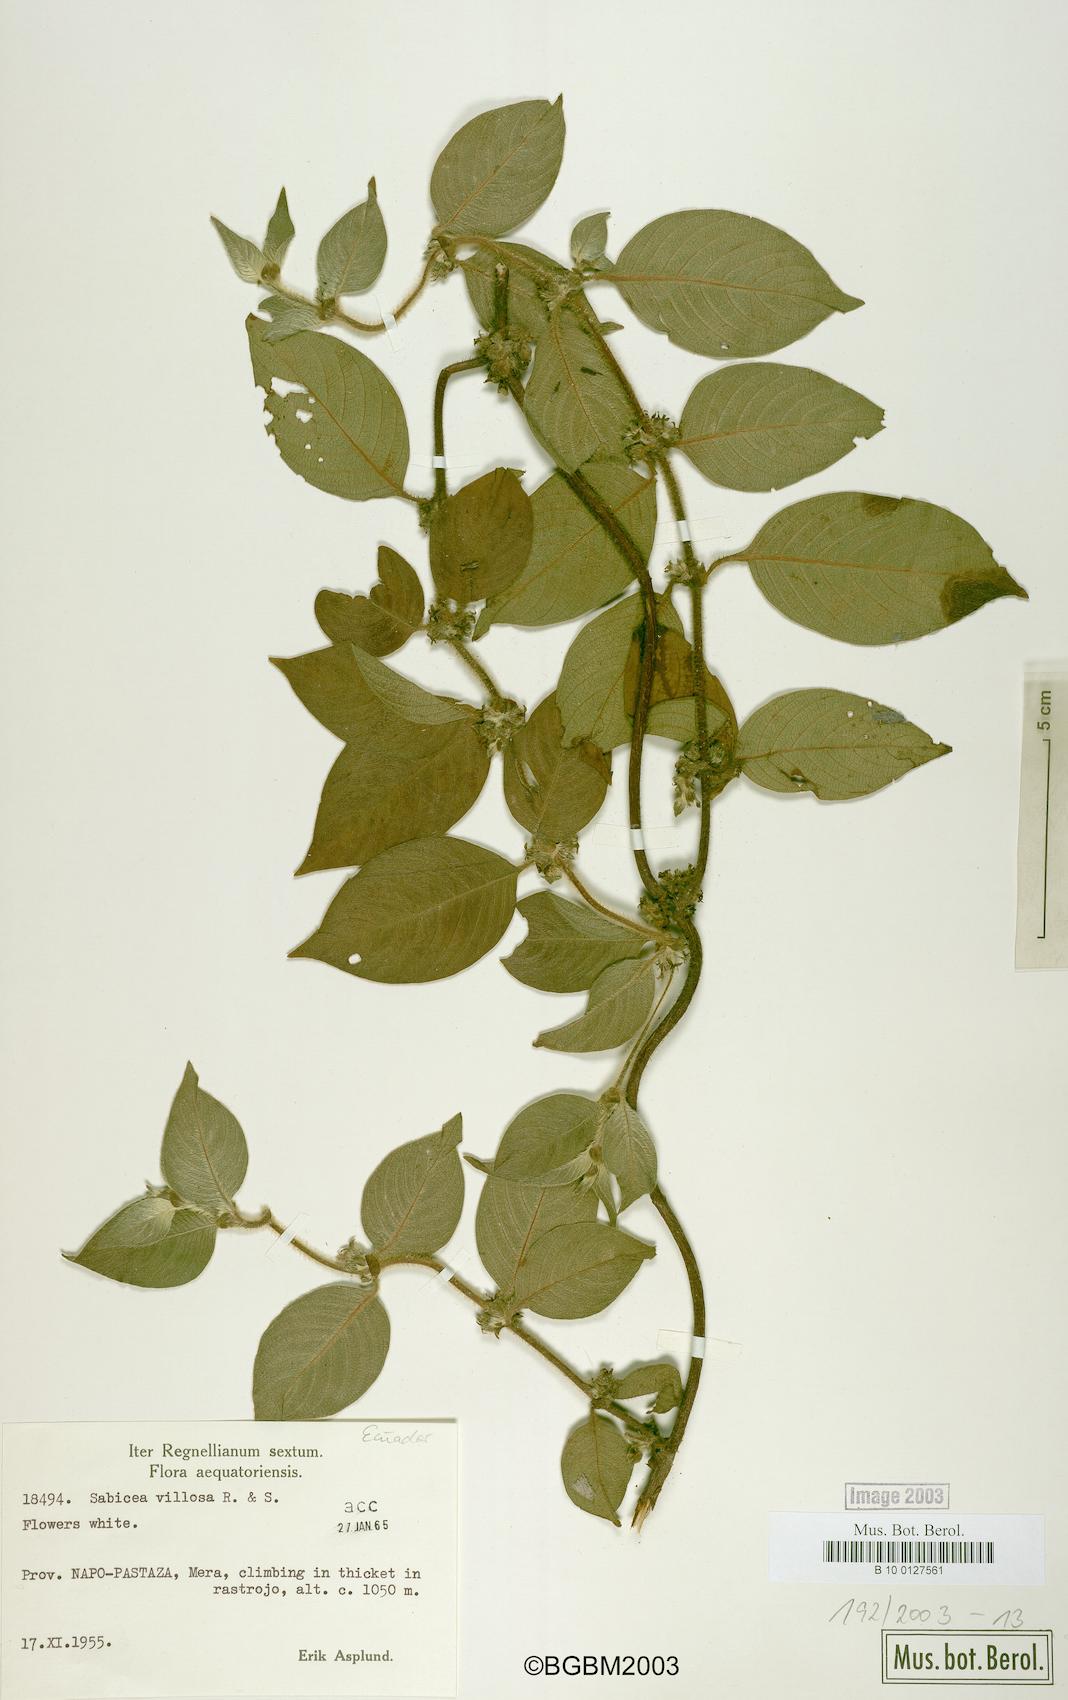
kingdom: Plantae
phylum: Tracheophyta
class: Magnoliopsida
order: Gentianales
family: Rubiaceae
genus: Sabicea
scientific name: Sabicea villosa
